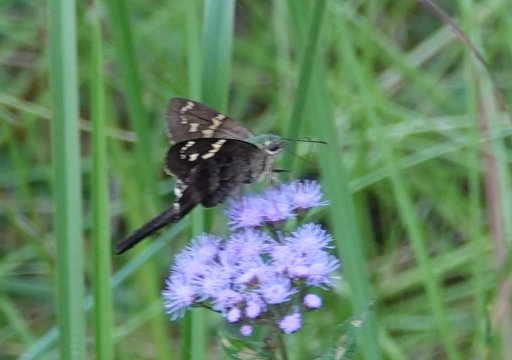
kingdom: Animalia
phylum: Arthropoda
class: Insecta
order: Lepidoptera
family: Hesperiidae
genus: Urbanus
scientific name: Urbanus proteus
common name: Long-tailed Skipper
